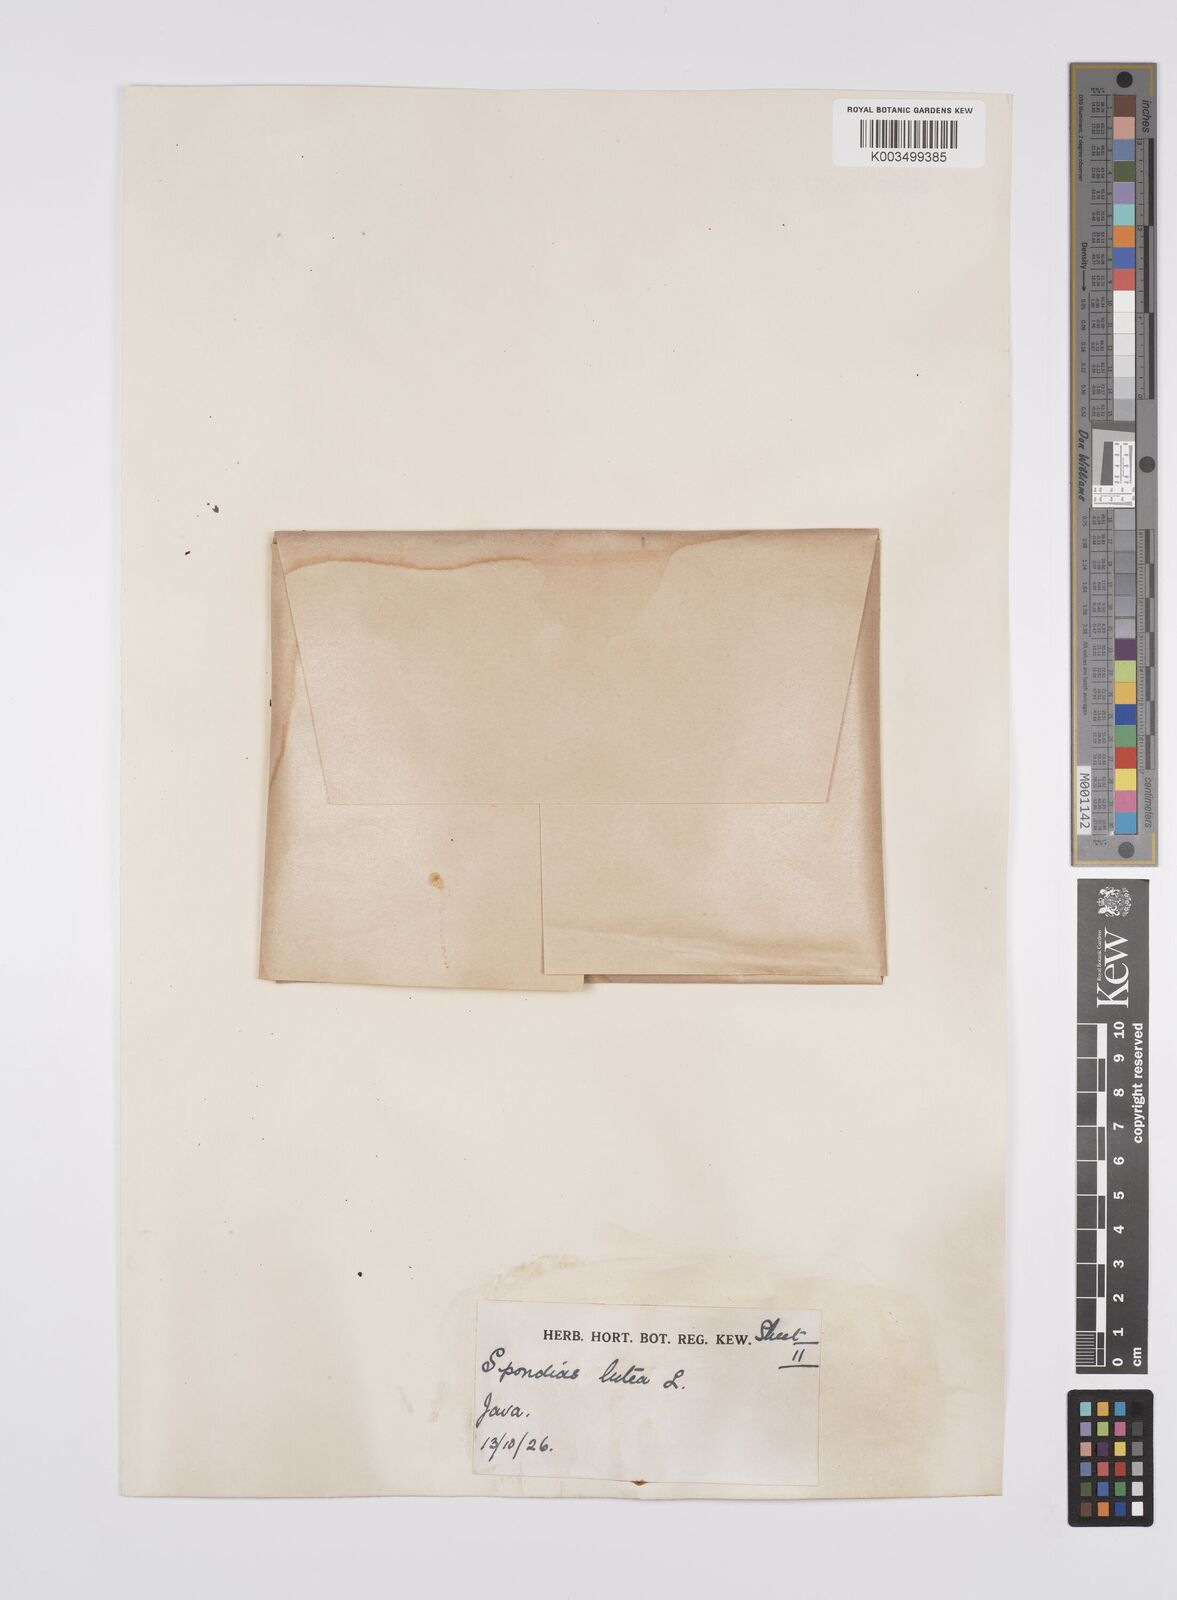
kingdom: Plantae
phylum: Tracheophyta
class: Magnoliopsida
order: Sapindales
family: Anacardiaceae
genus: Spondias
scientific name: Spondias mombin
